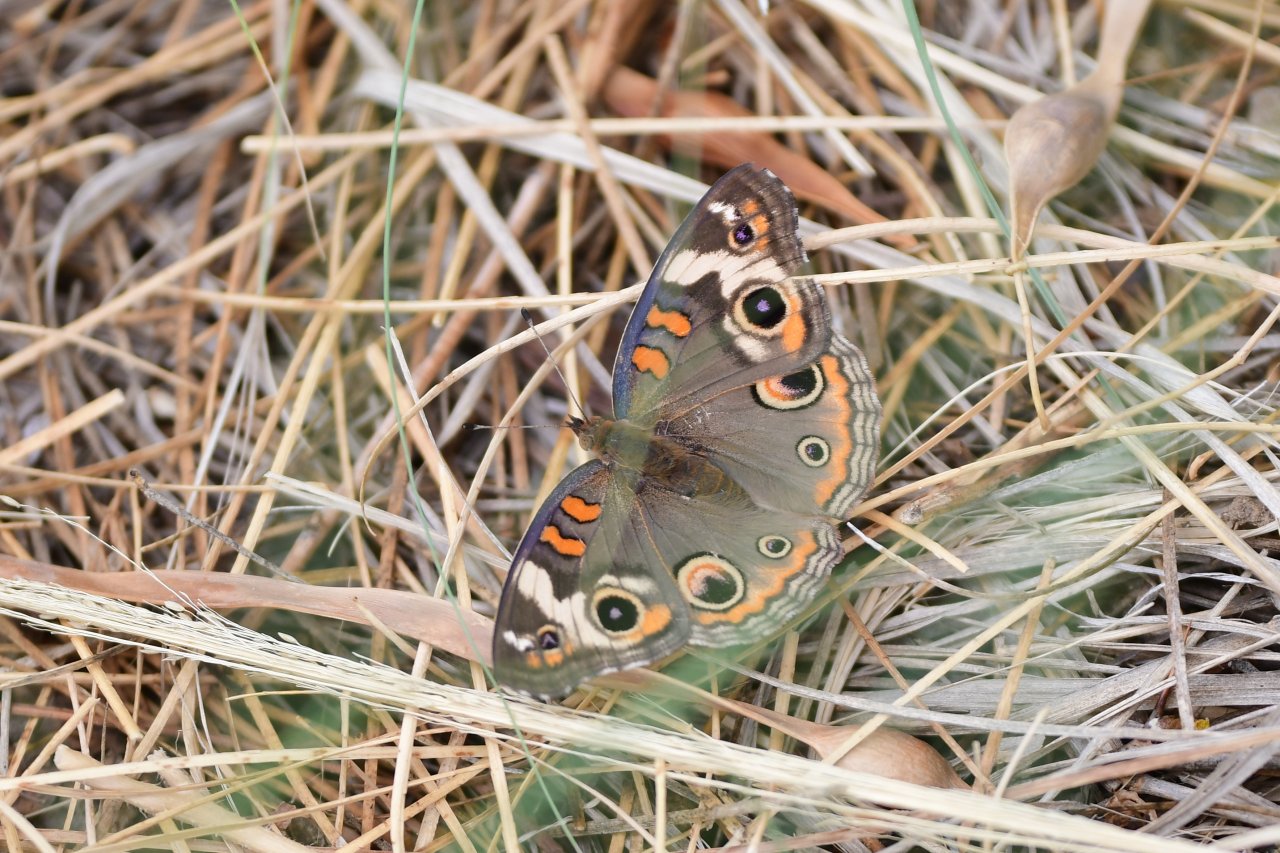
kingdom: Animalia
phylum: Arthropoda
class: Insecta
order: Lepidoptera
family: Nymphalidae
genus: Junonia
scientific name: Junonia coenia
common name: Common Buckeye
